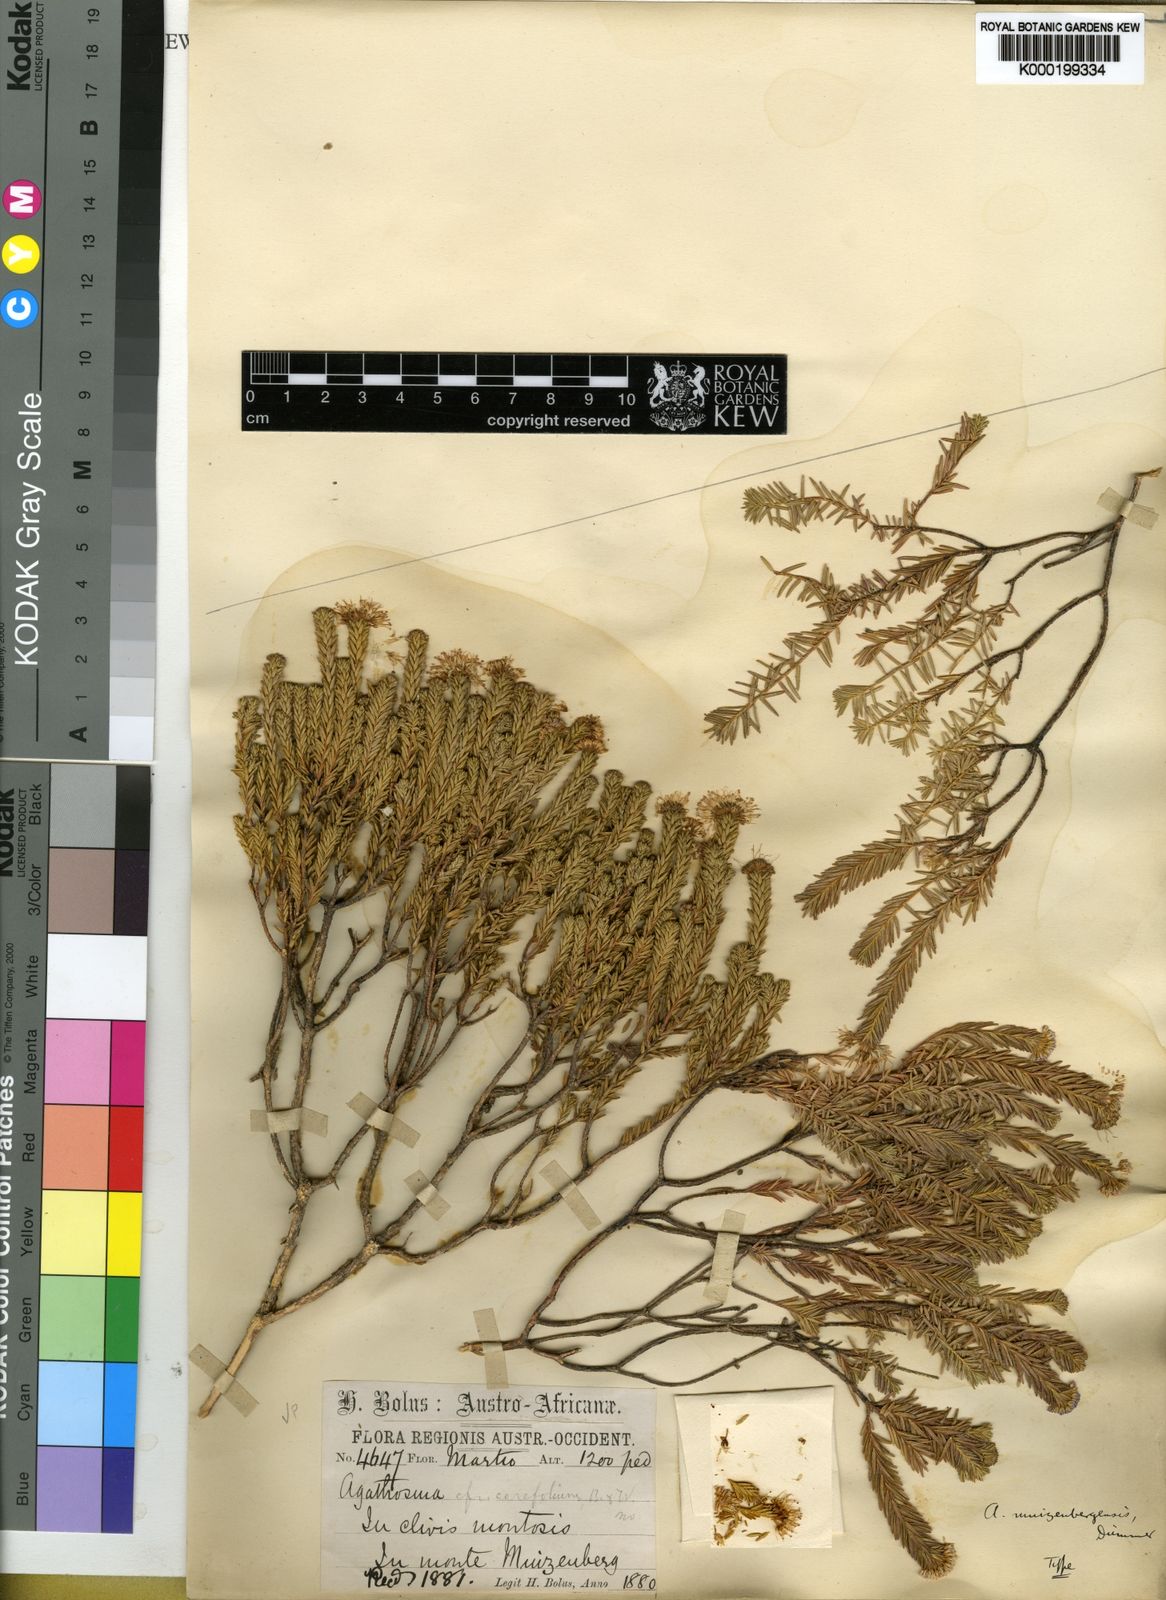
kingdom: Plantae
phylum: Tracheophyta
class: Magnoliopsida
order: Sapindales
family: Rutaceae
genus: Agathosma
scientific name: Agathosma capensis
